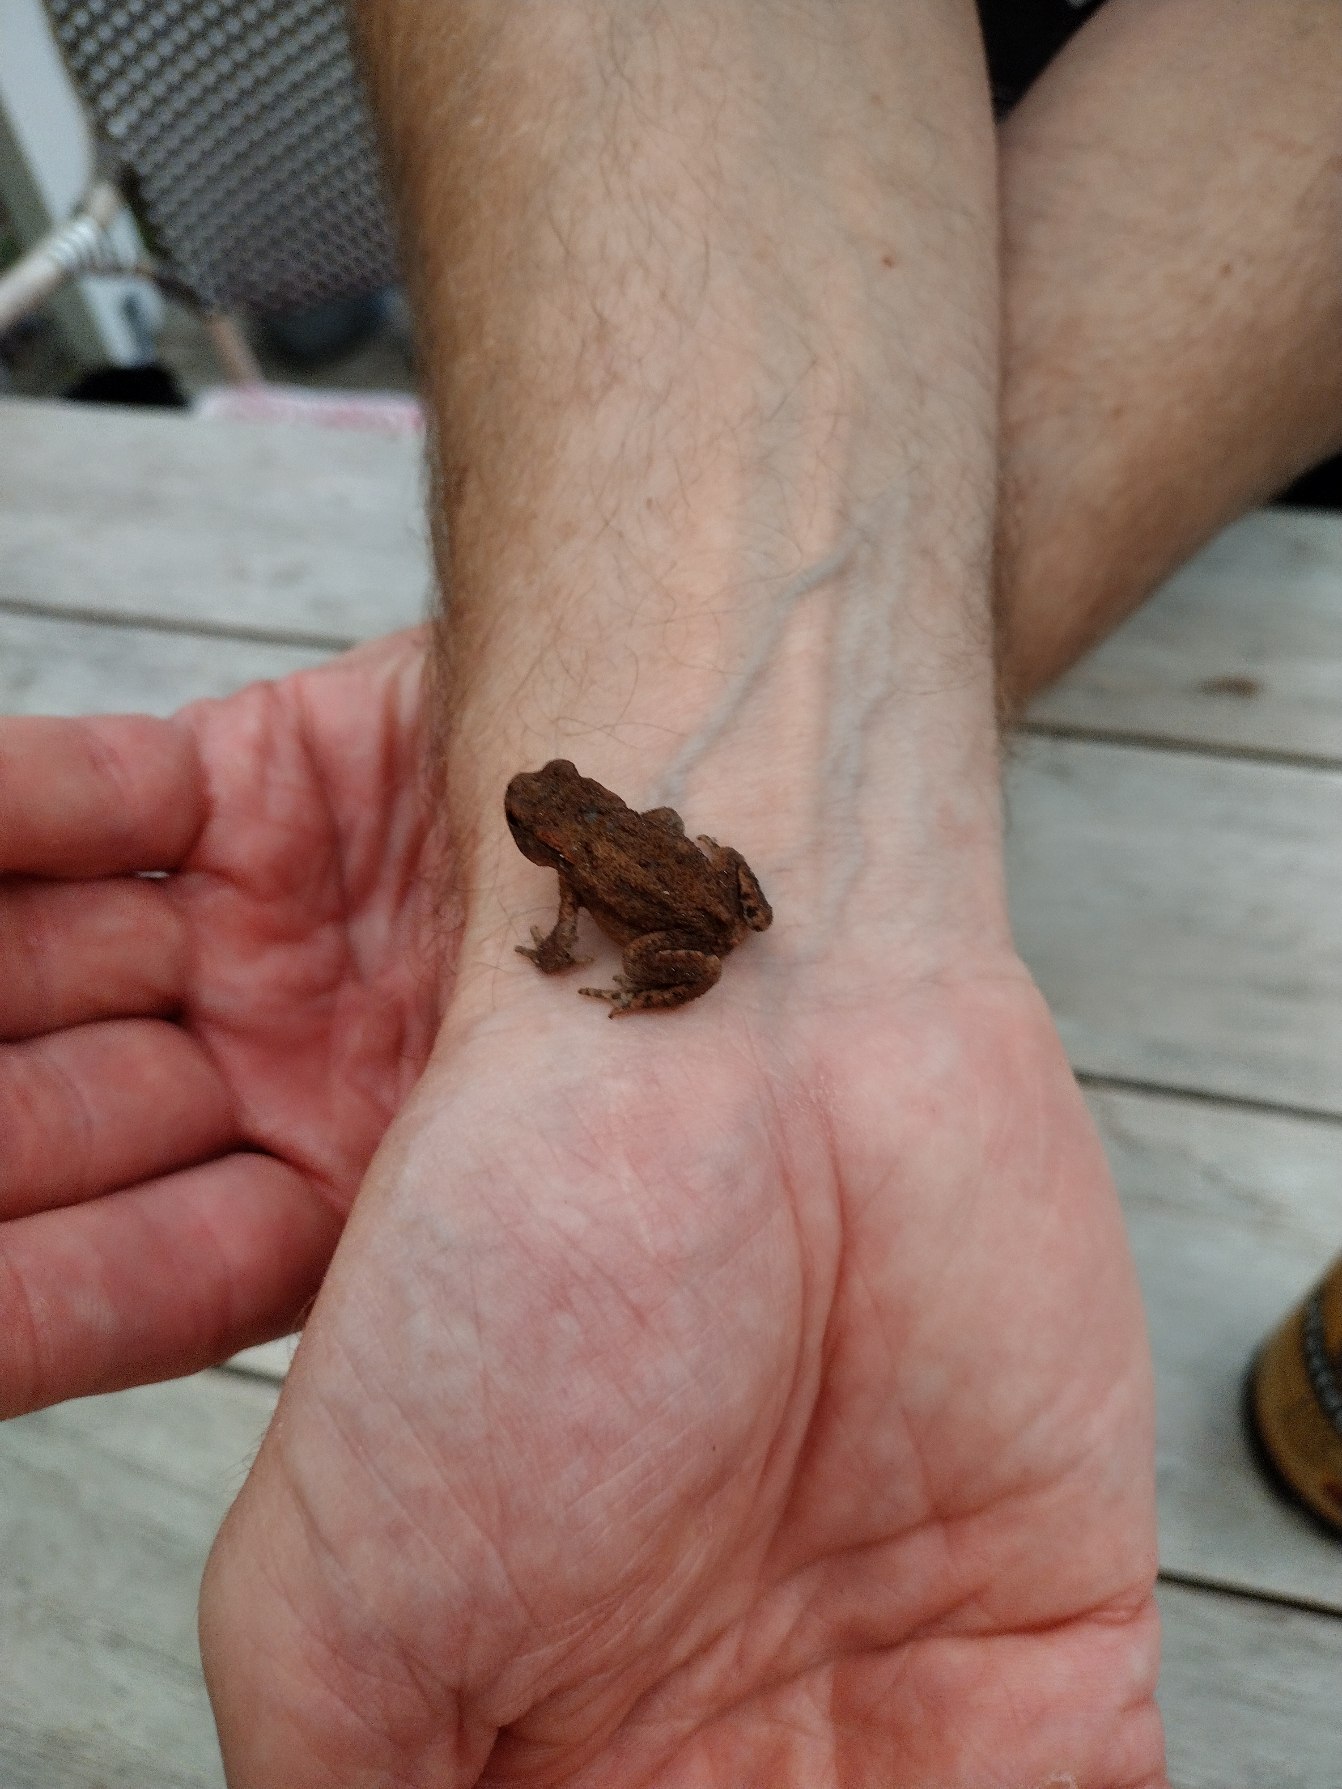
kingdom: Animalia
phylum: Chordata
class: Amphibia
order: Anura
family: Bufonidae
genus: Bufo
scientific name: Bufo bufo
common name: Skrubtudse
